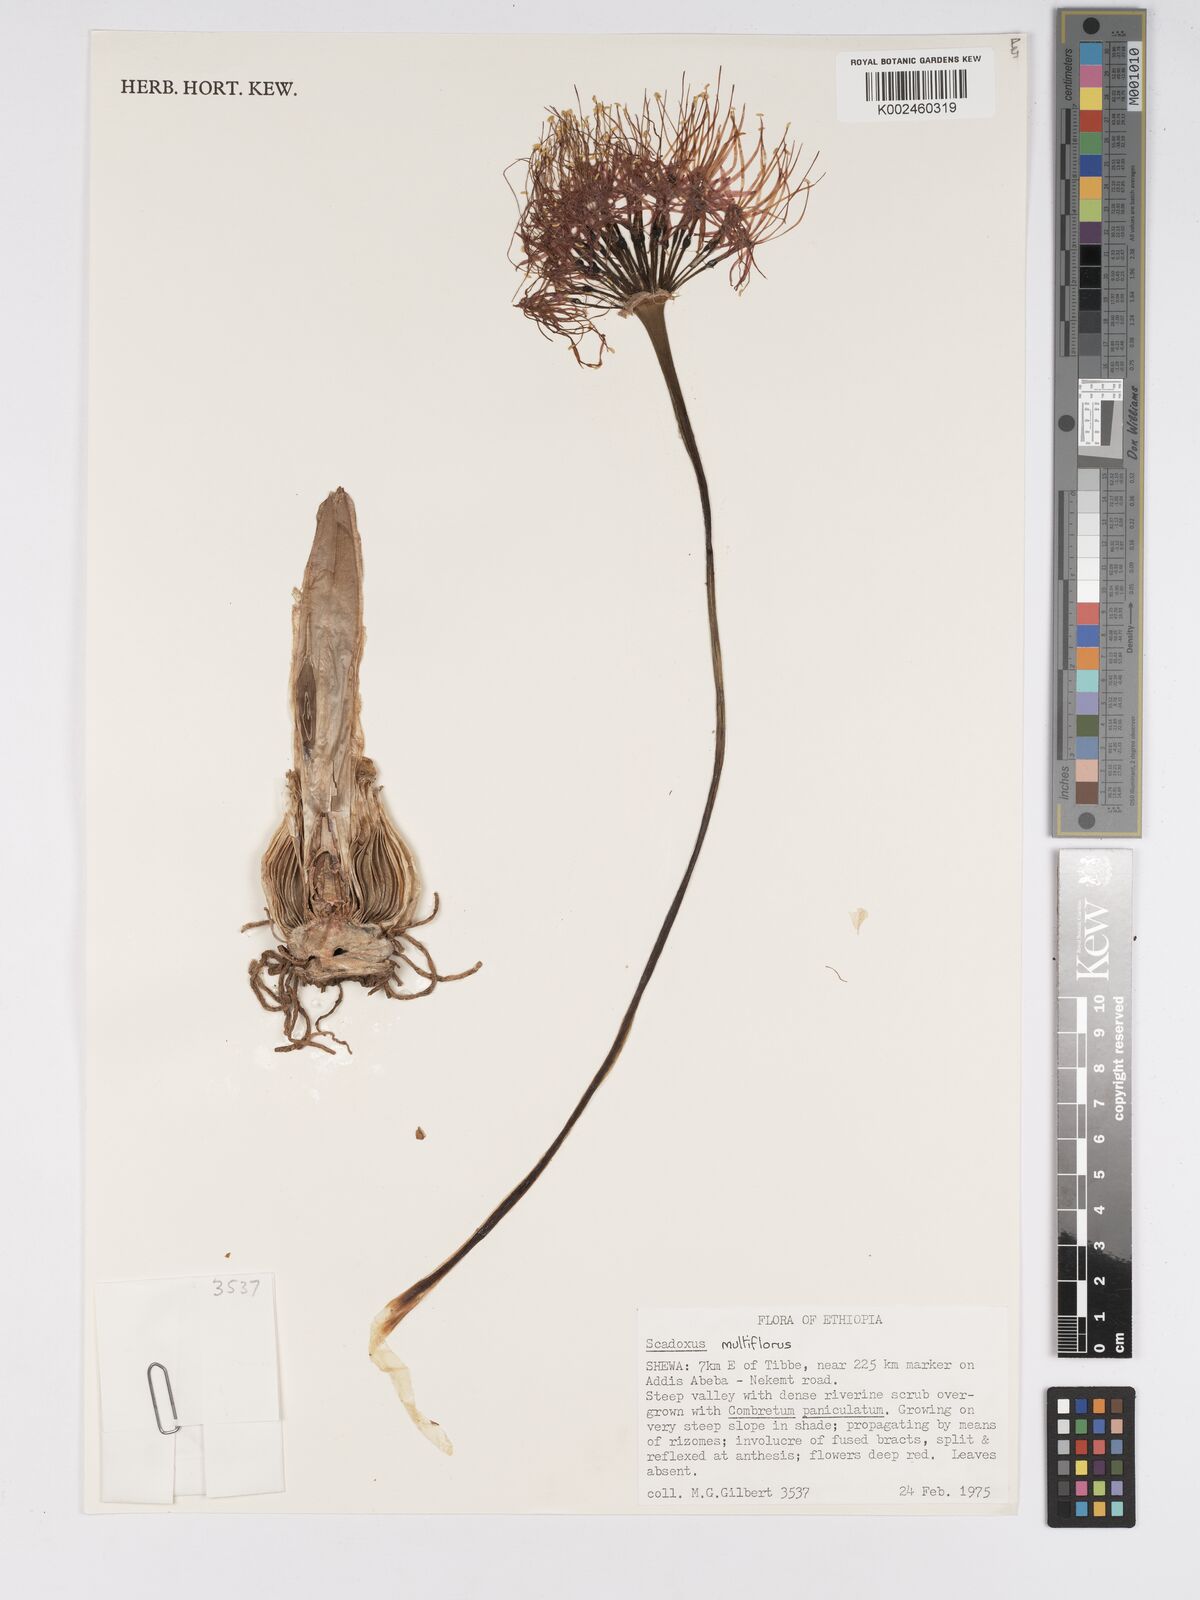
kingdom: Plantae
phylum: Tracheophyta
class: Liliopsida
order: Asparagales
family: Amaryllidaceae
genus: Scadoxus
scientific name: Scadoxus multiflorus
